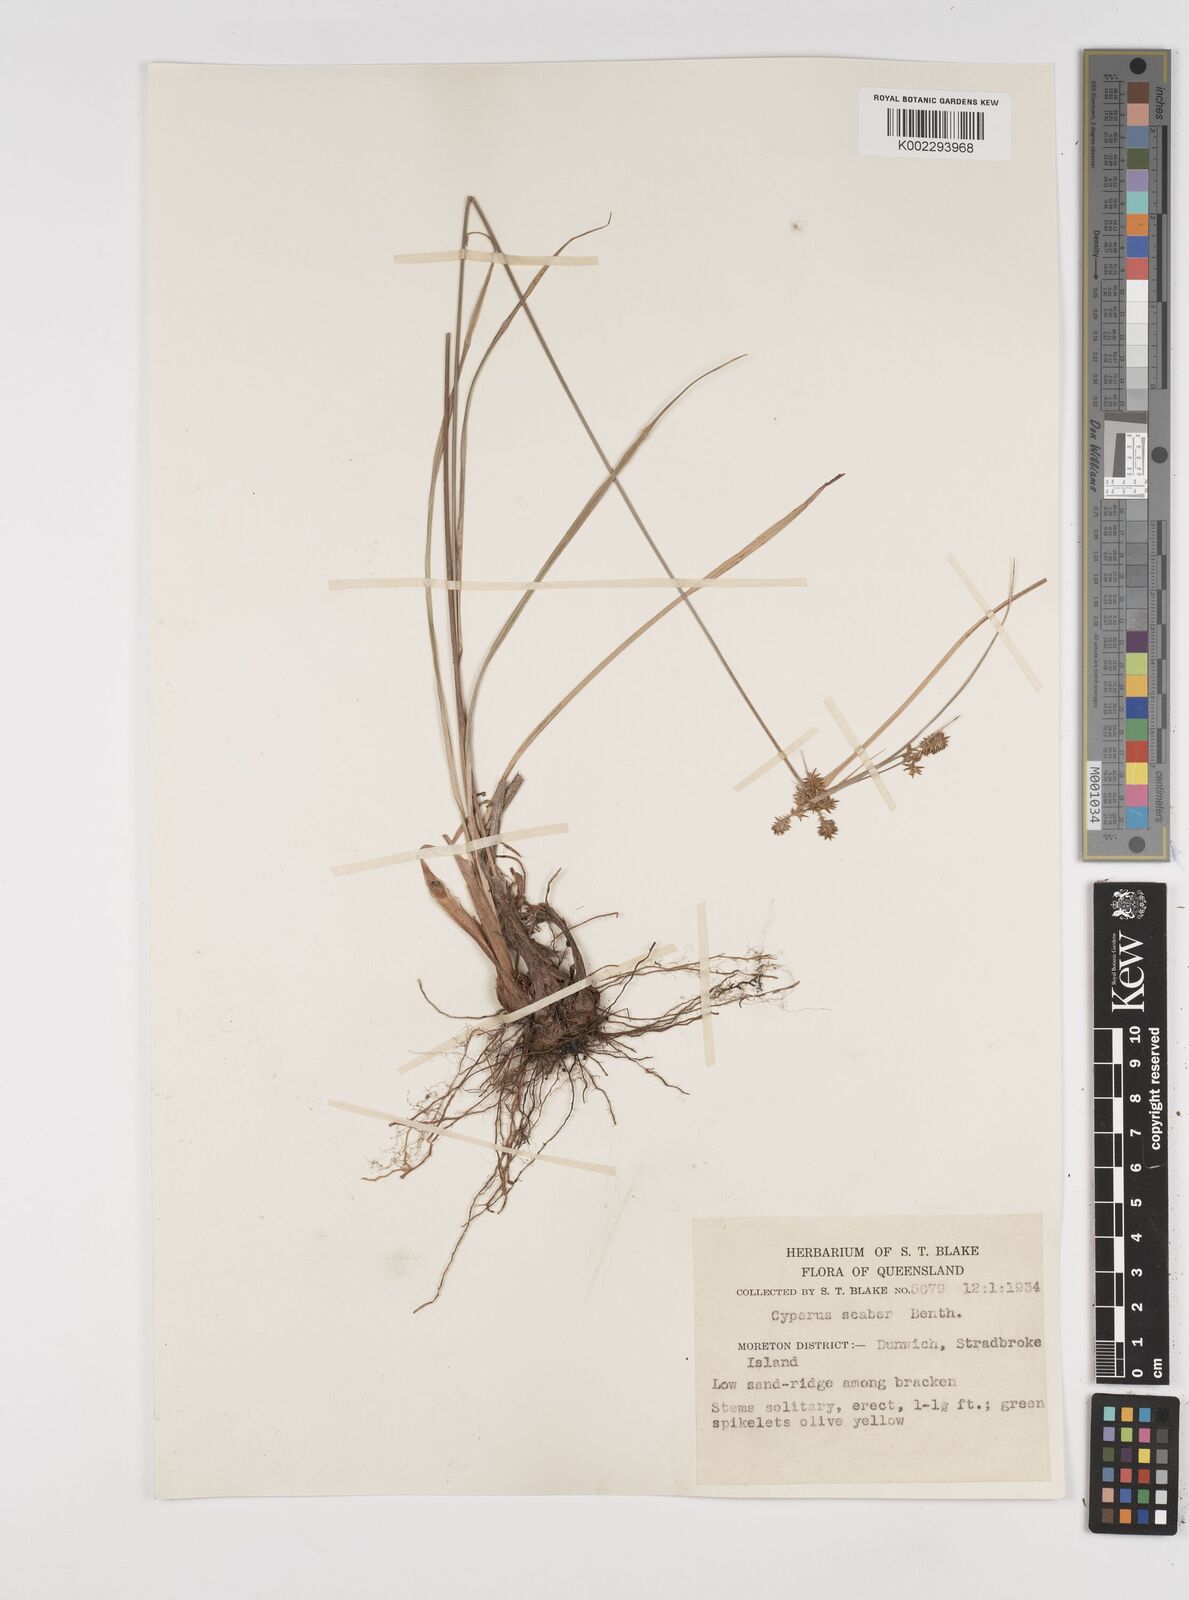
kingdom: Plantae
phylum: Tracheophyta
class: Liliopsida
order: Poales
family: Cyperaceae
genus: Cyperus
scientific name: Cyperus scaber
